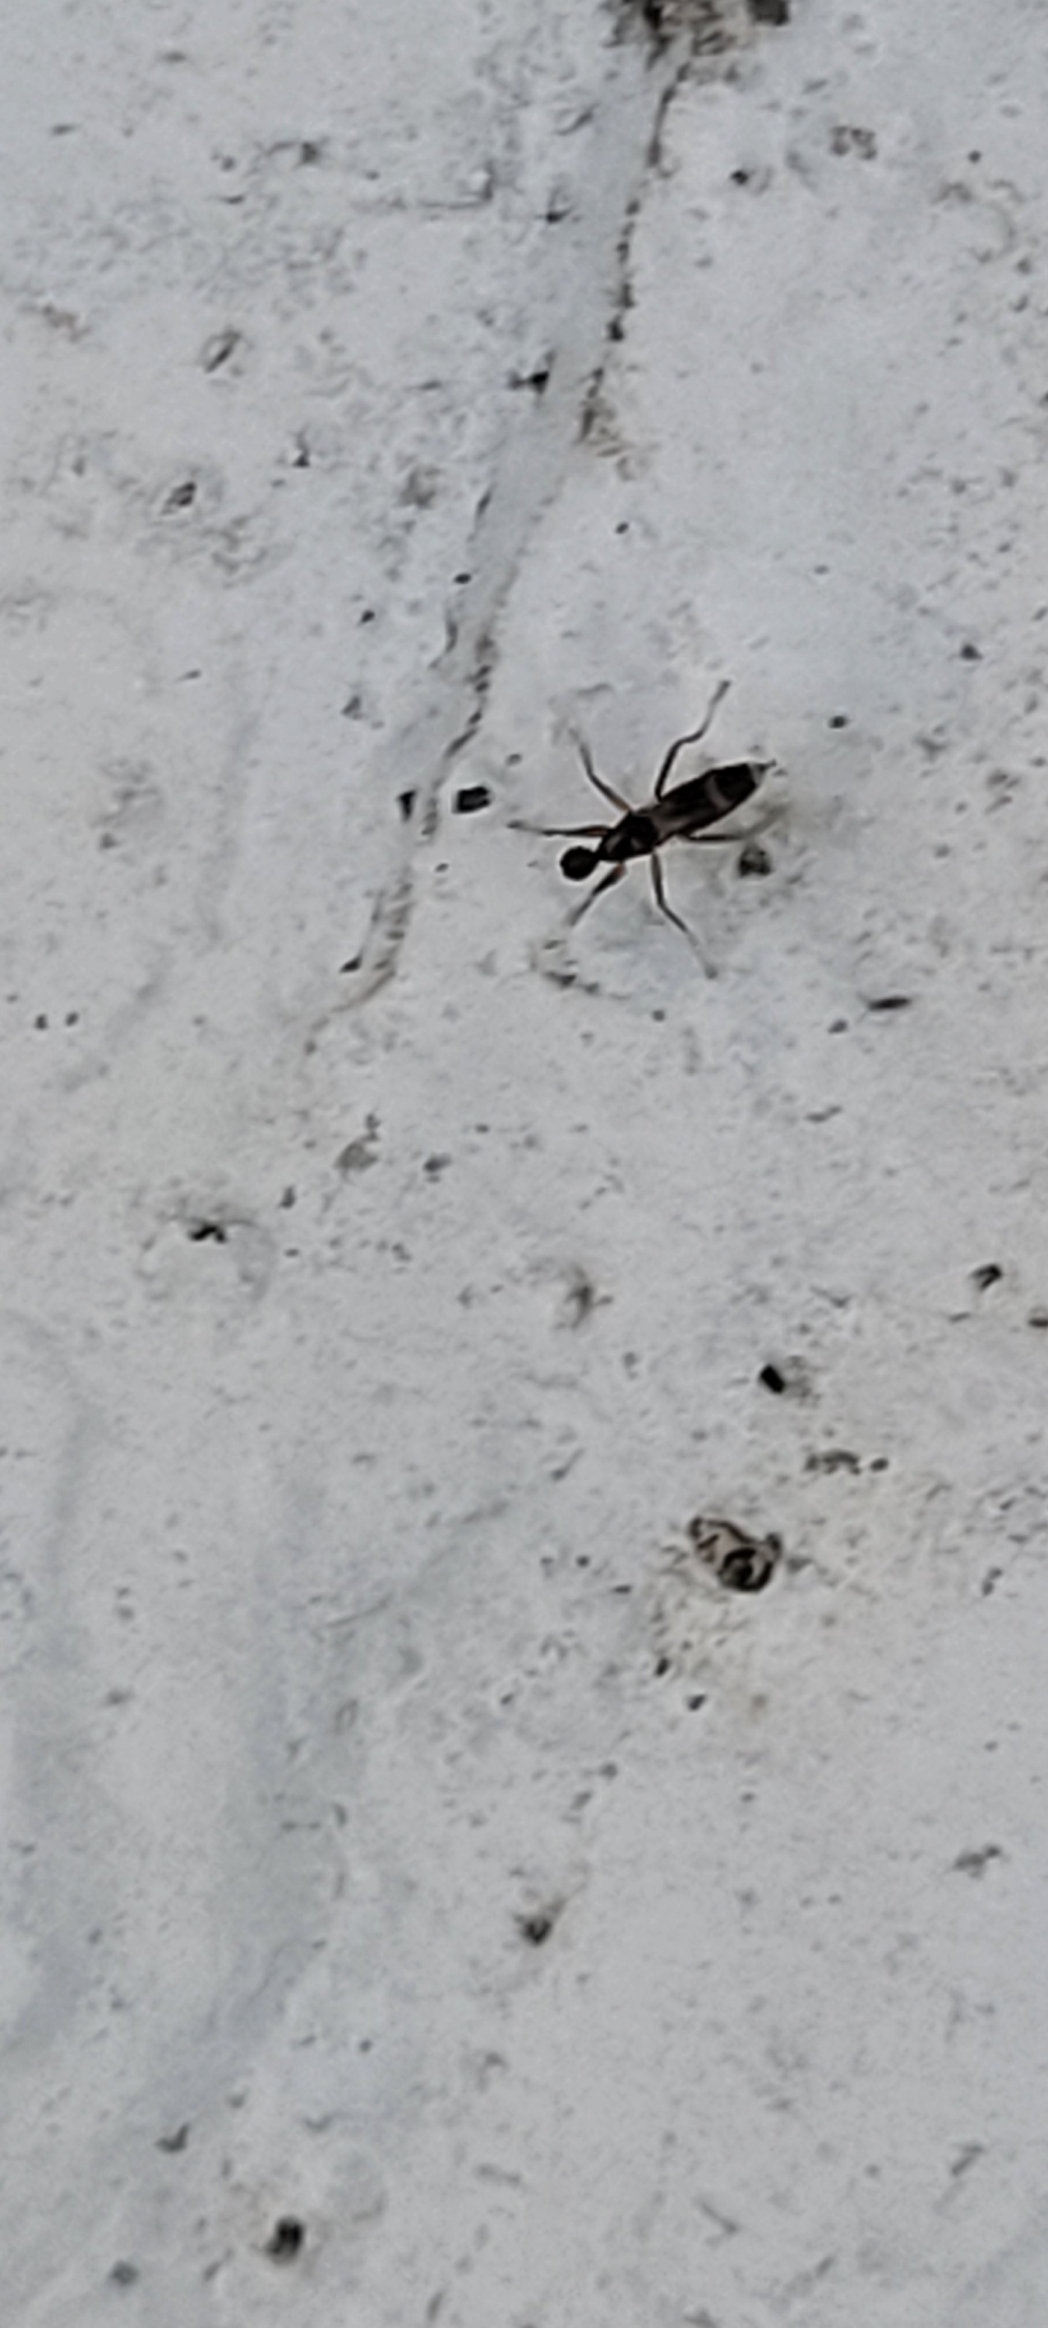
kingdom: Animalia
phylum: Arthropoda
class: Insecta
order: Diptera
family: Hybotidae
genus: Tachydromia
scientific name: Tachydromia
